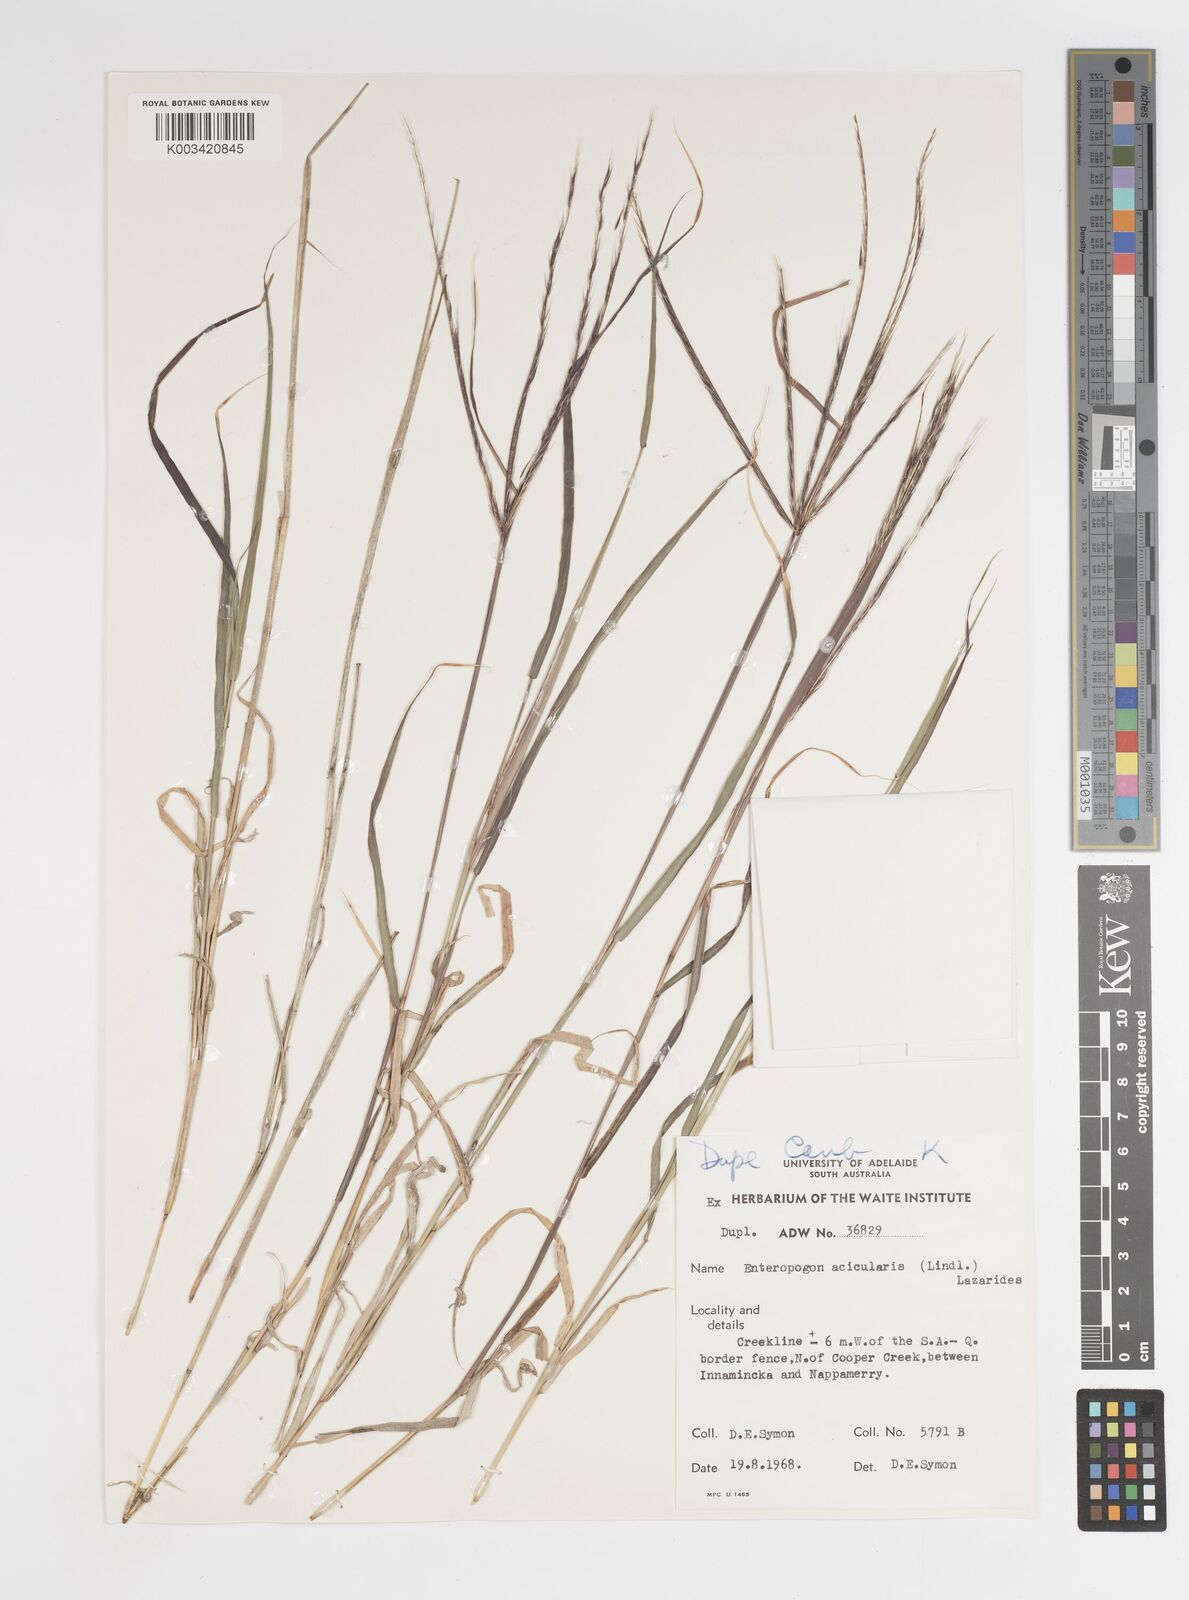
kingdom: Plantae
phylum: Tracheophyta
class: Liliopsida
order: Poales
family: Poaceae
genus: Enteropogon
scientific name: Enteropogon acicularis
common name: Curly windmill grass
